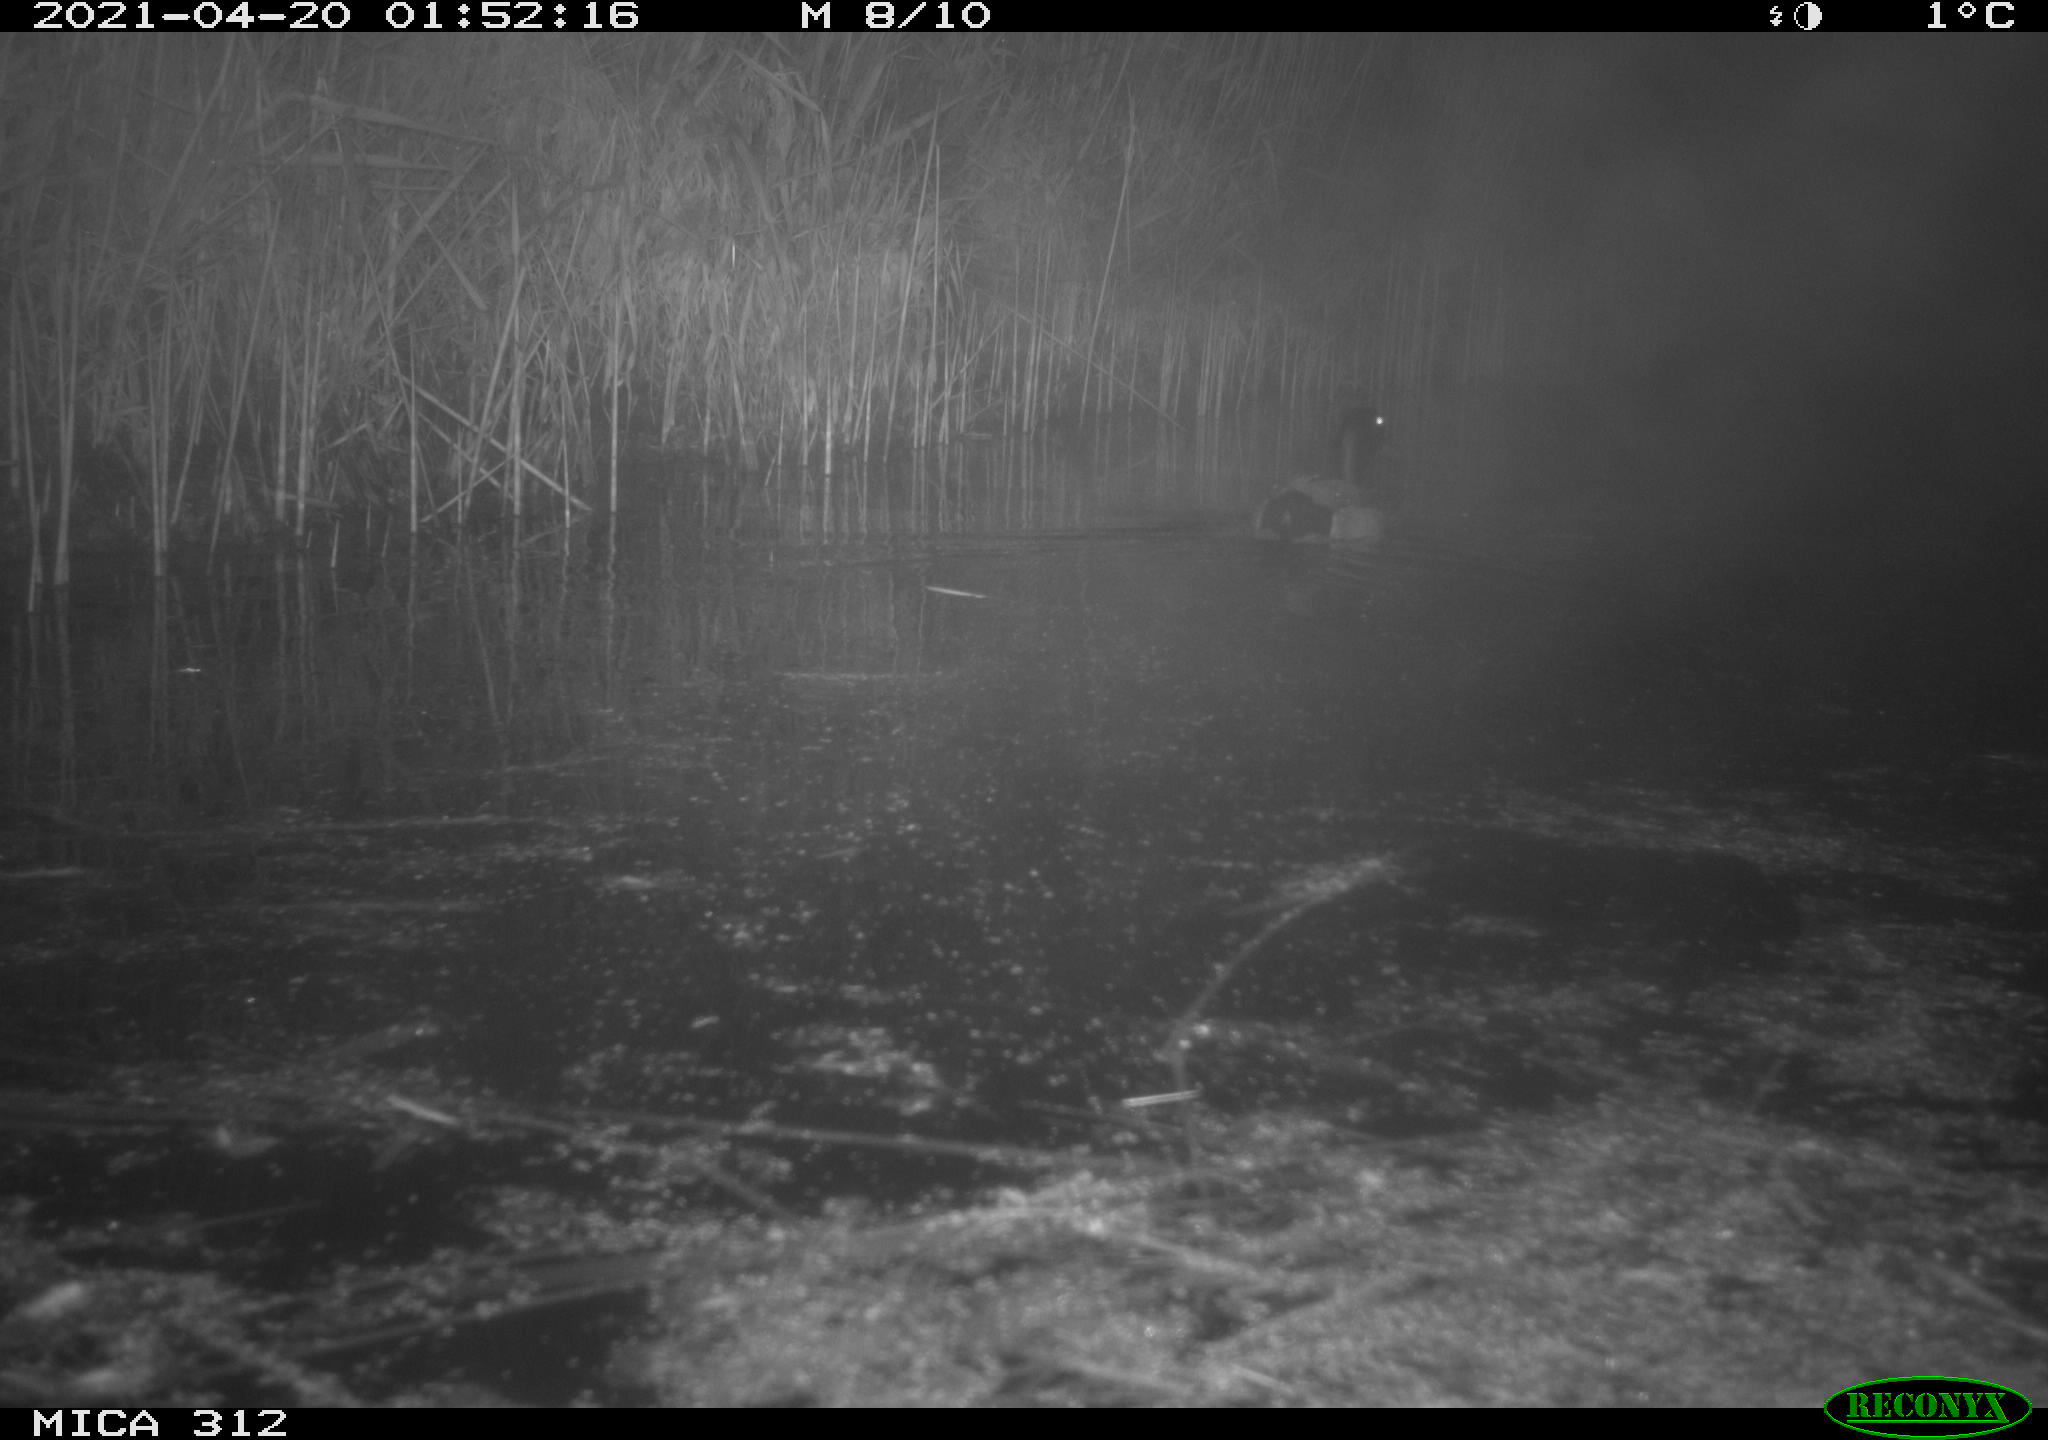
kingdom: Animalia
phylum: Chordata
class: Aves
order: Anseriformes
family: Anatidae
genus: Anas
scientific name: Anas platyrhynchos
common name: Mallard
